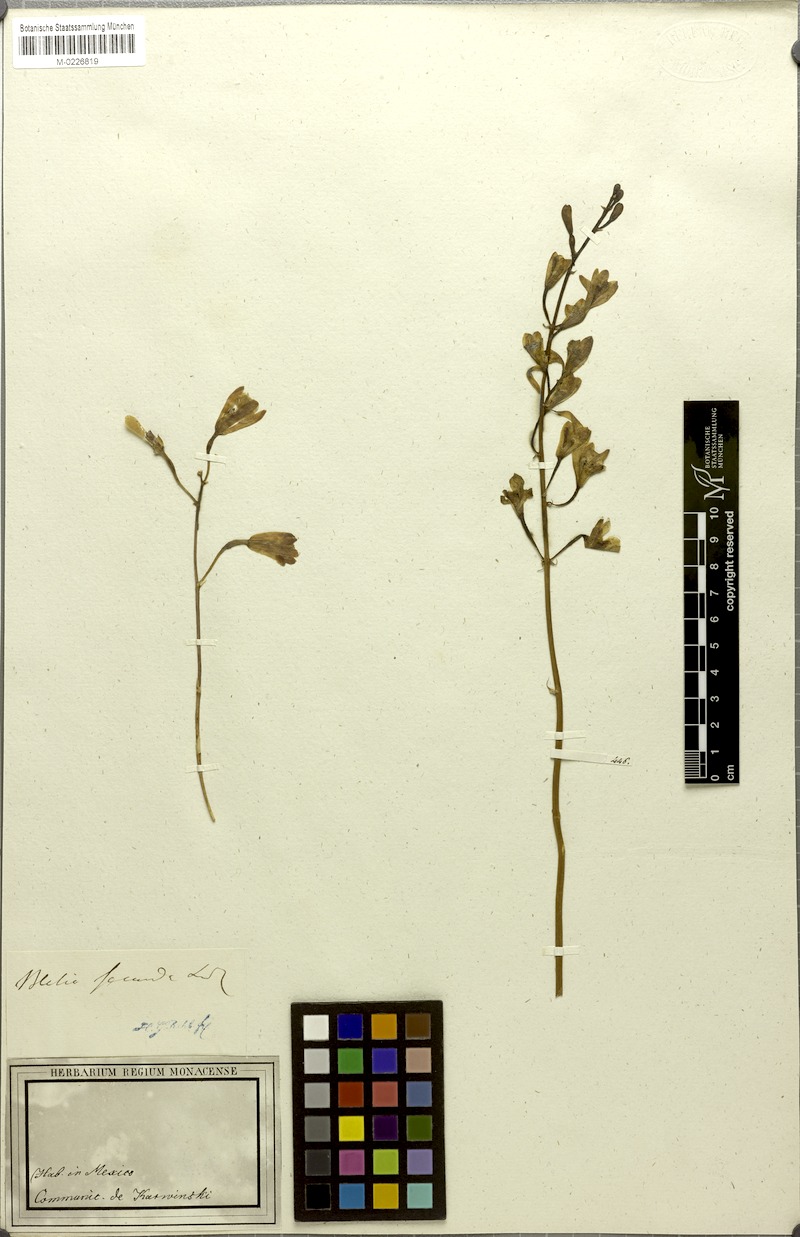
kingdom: Plantae
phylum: Tracheophyta
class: Liliopsida
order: Asparagales
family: Orchidaceae
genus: Bletia
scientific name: Bletia punctata
